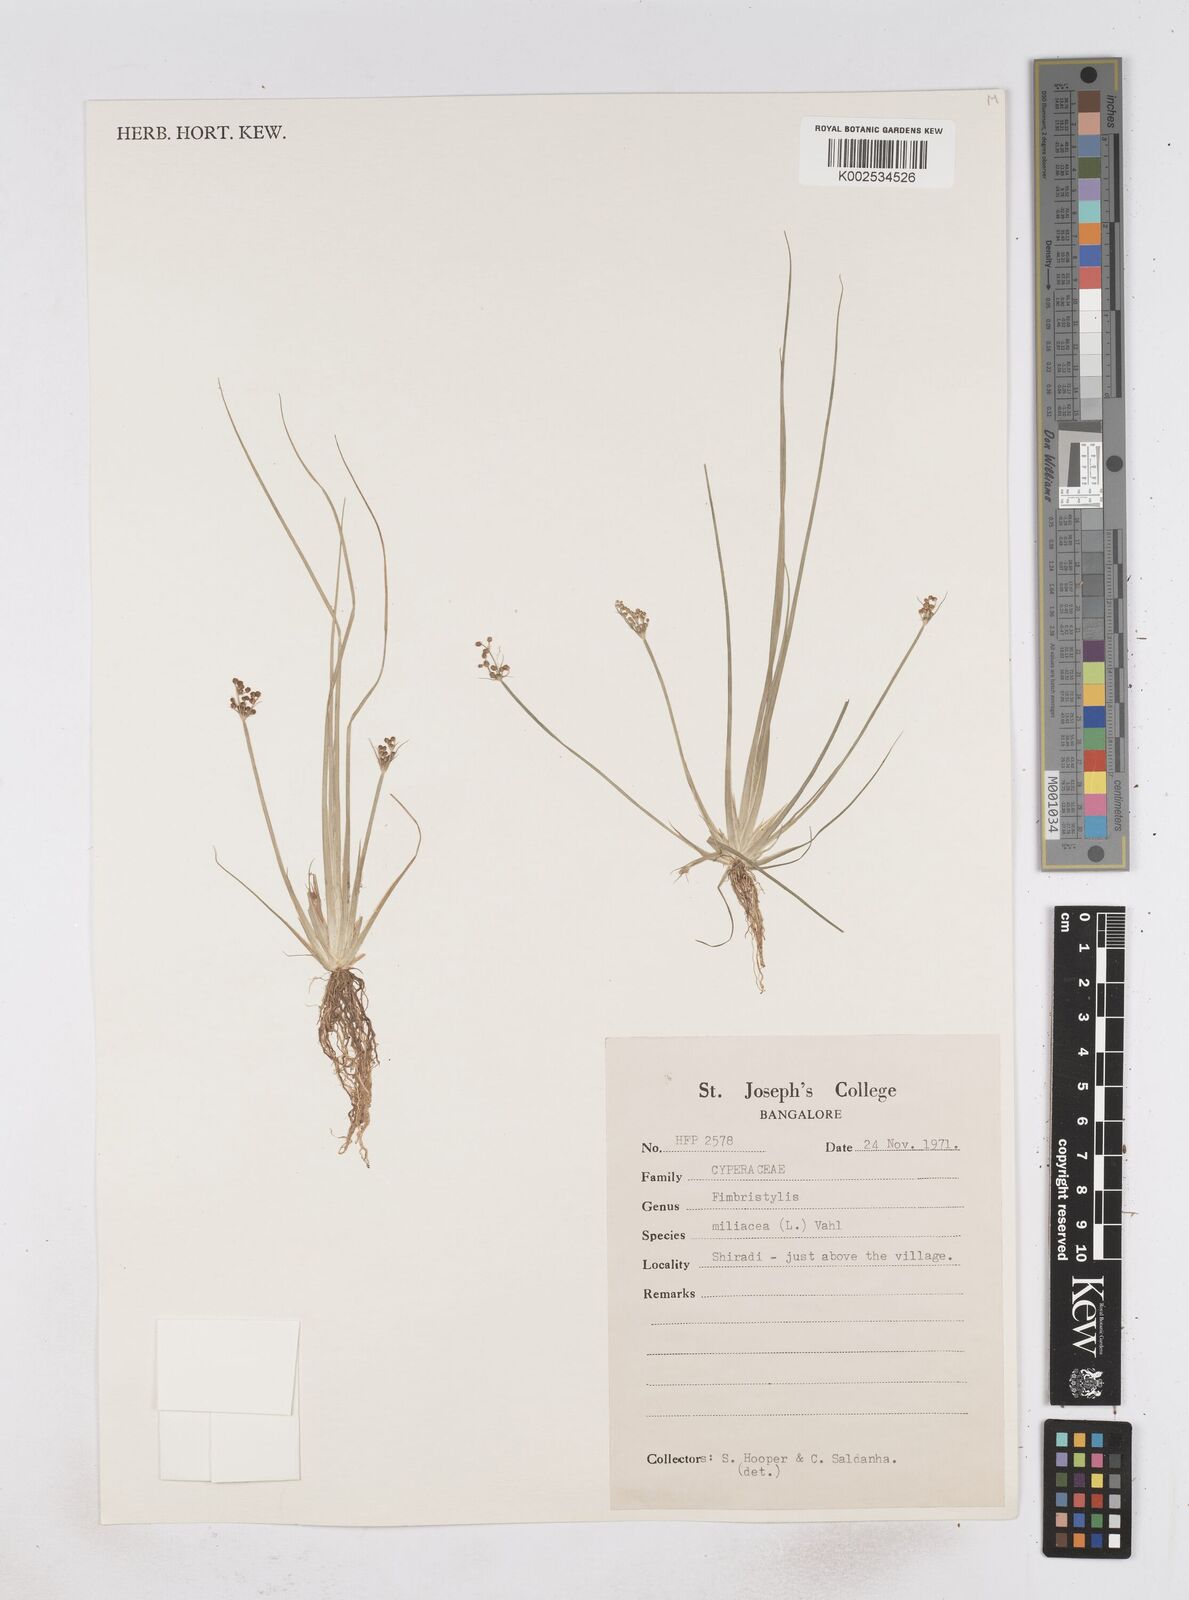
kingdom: Plantae
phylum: Tracheophyta
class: Liliopsida
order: Poales
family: Cyperaceae
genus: Fimbristylis
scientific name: Fimbristylis quinquangularis
